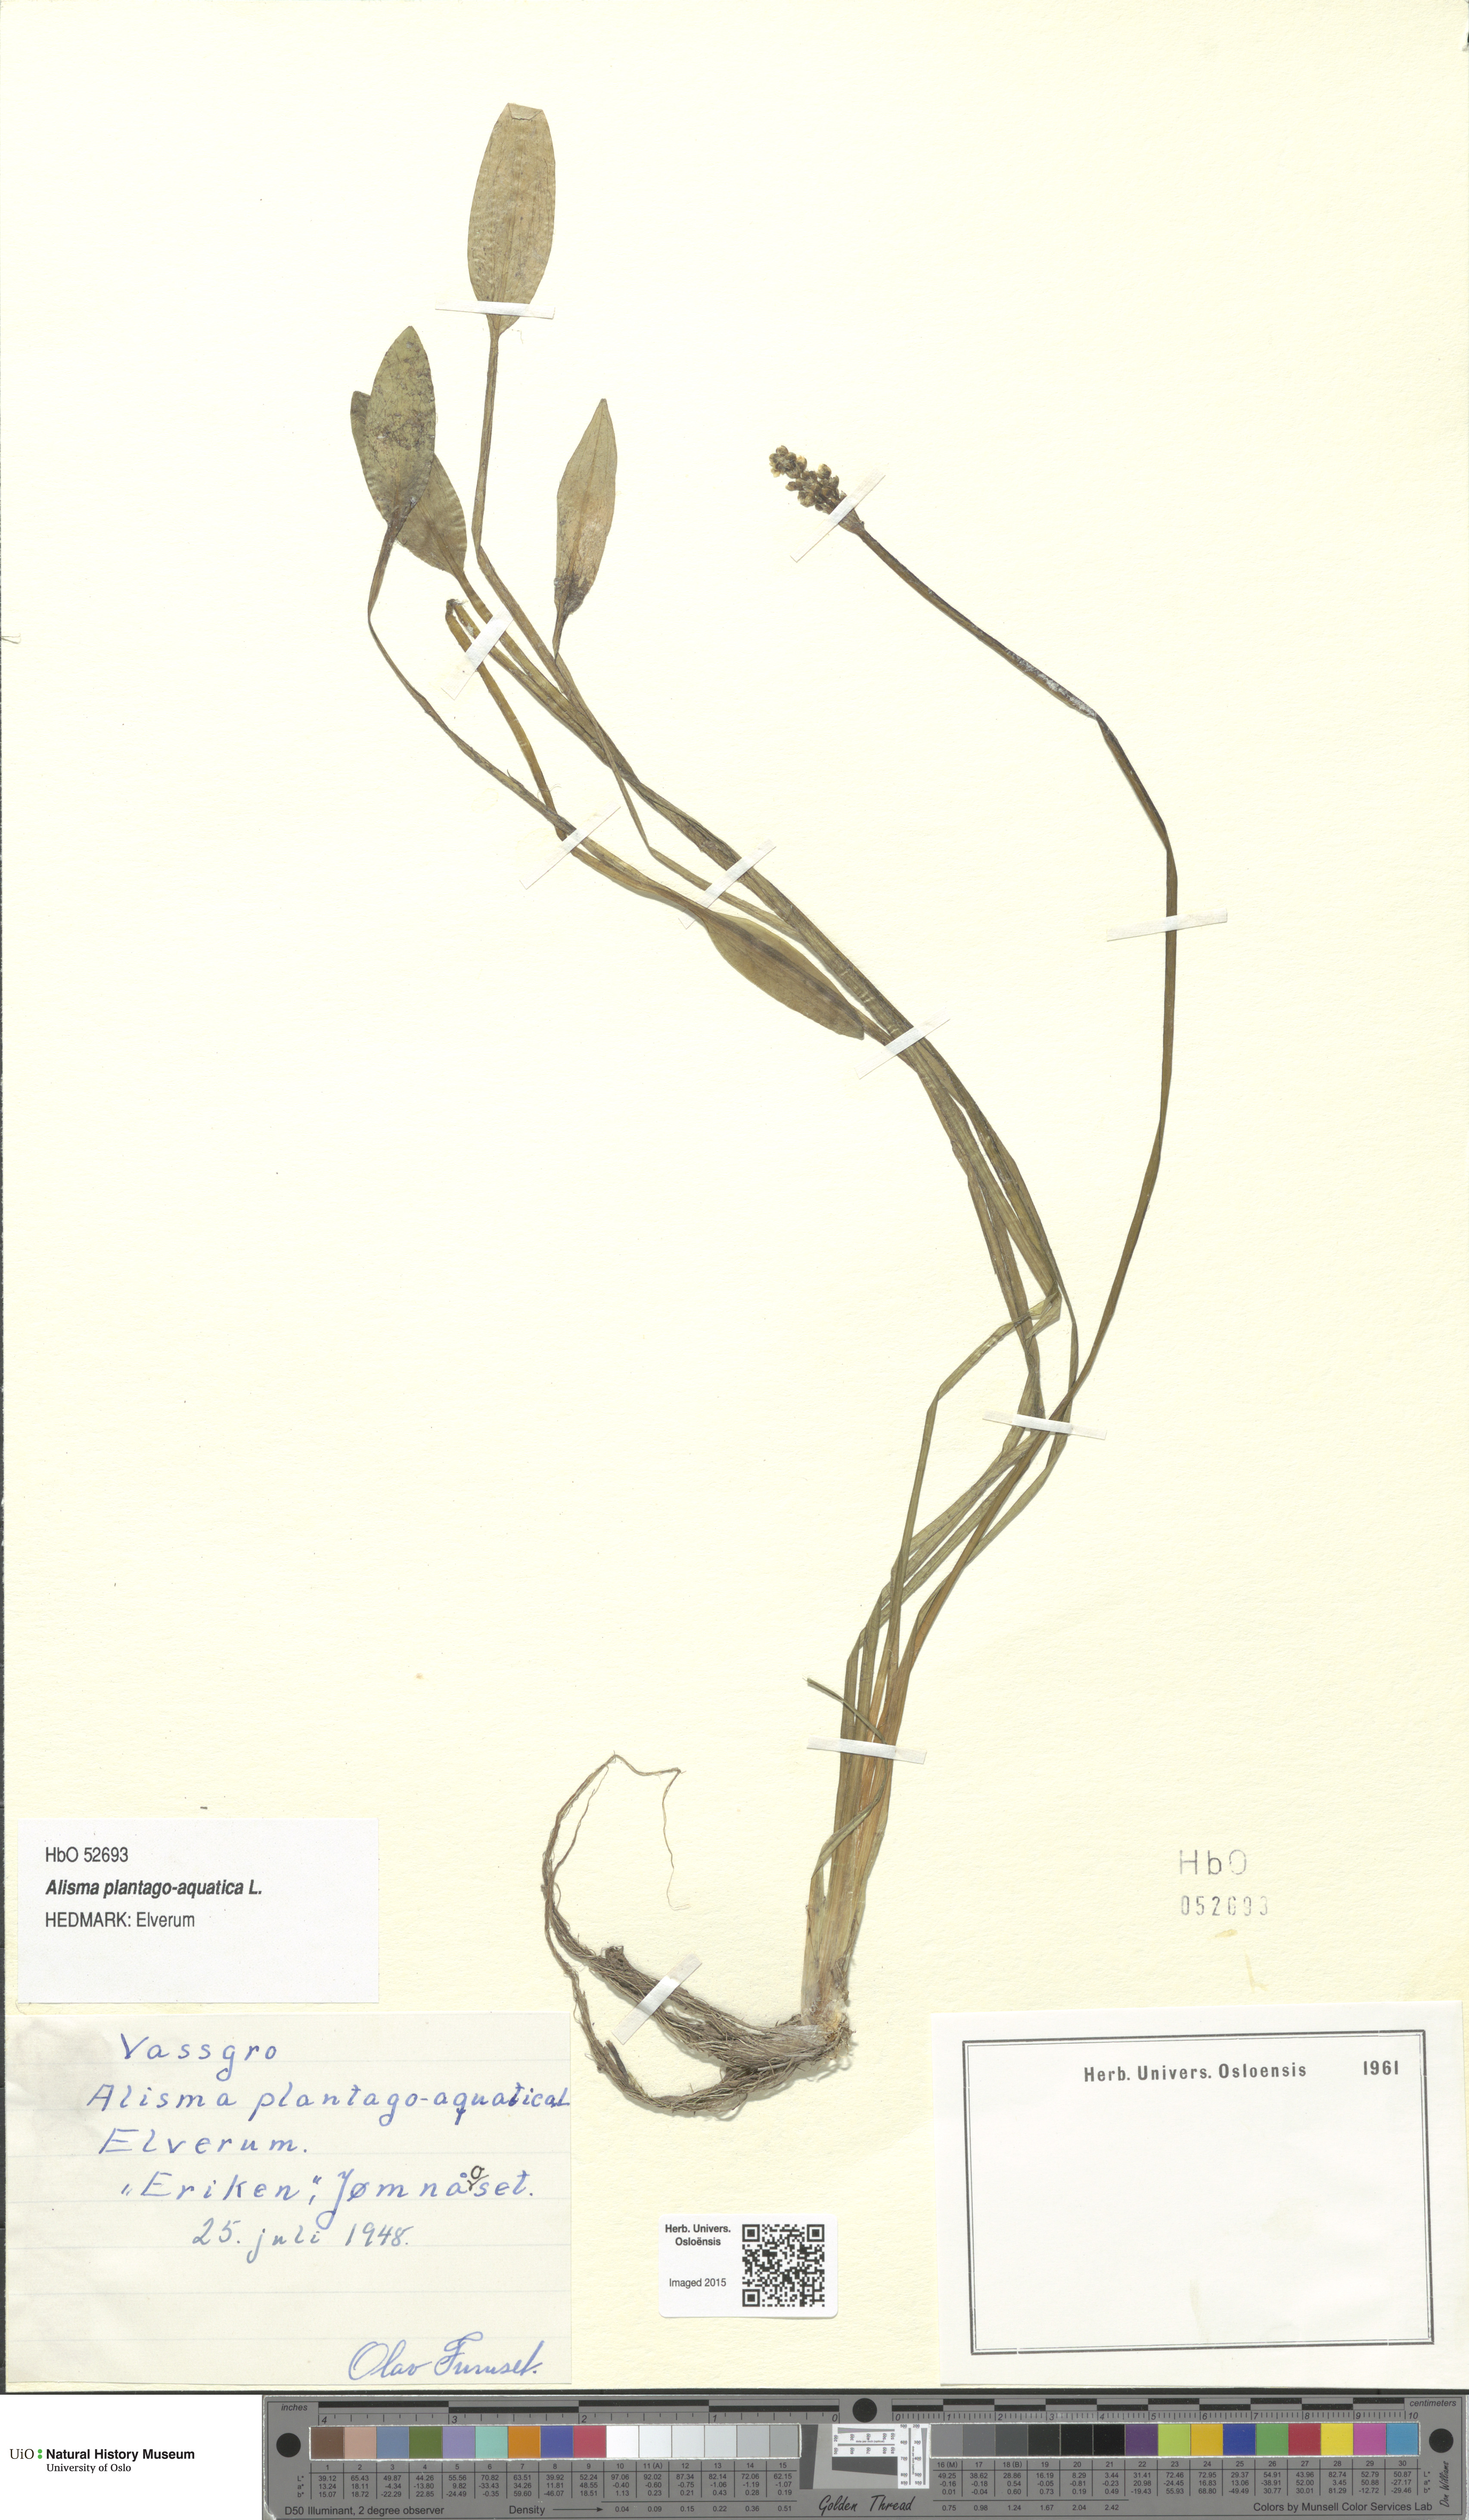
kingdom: Plantae
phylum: Tracheophyta
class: Liliopsida
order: Alismatales
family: Alismataceae
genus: Alisma
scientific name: Alisma plantago-aquatica
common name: Water-plantain
